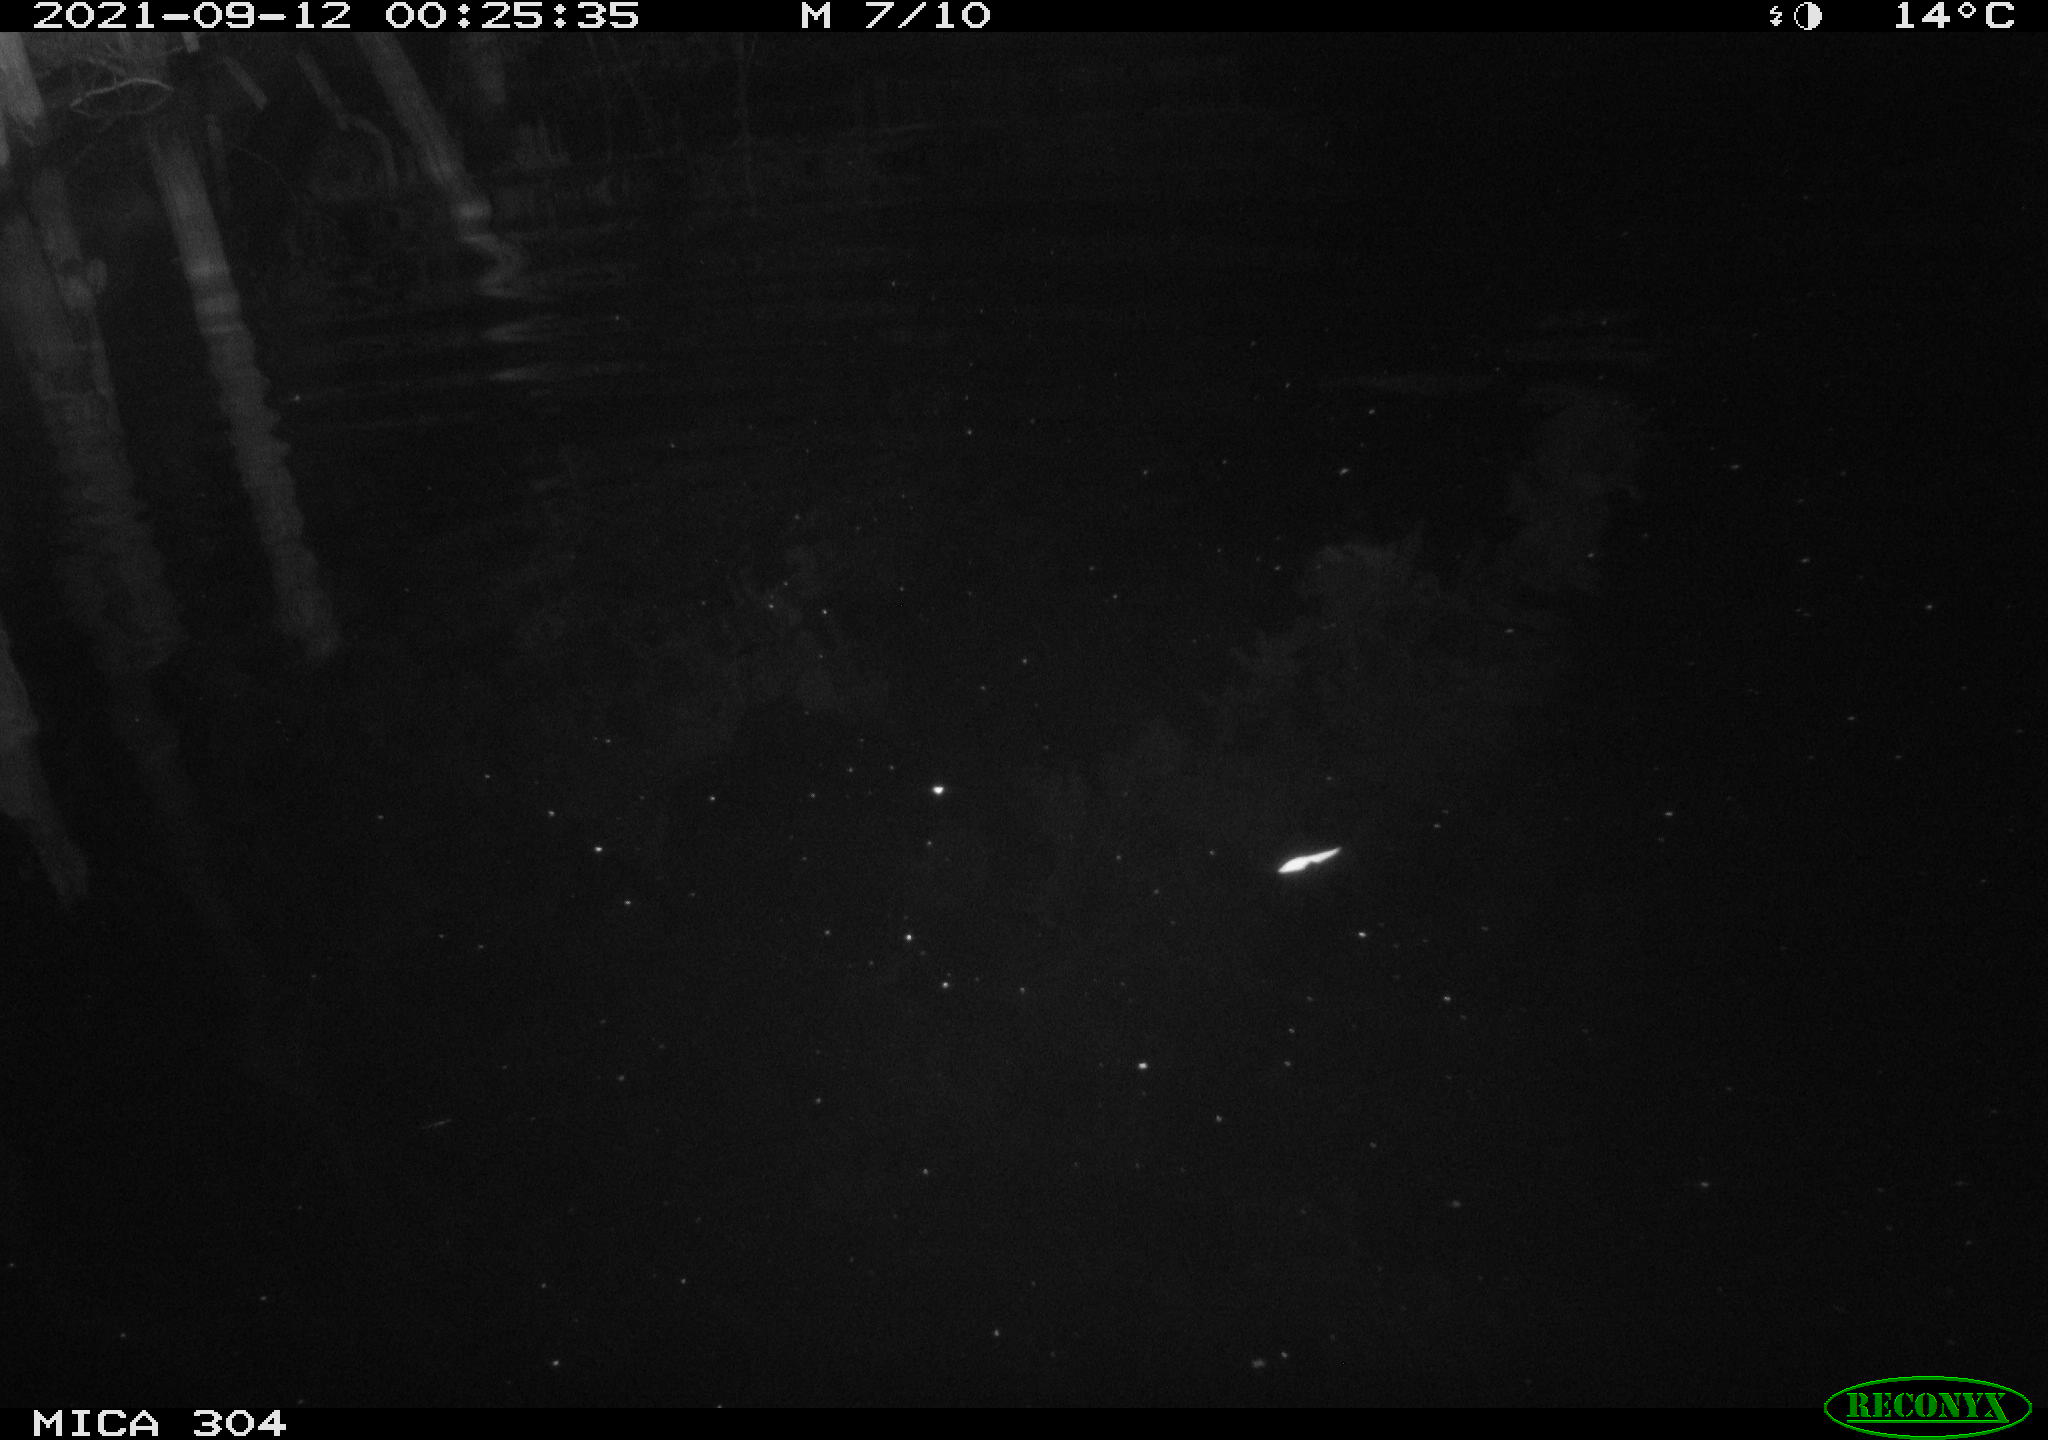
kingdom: Animalia
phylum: Chordata
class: Mammalia
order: Rodentia
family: Muridae
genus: Rattus
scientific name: Rattus norvegicus
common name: Brown rat
